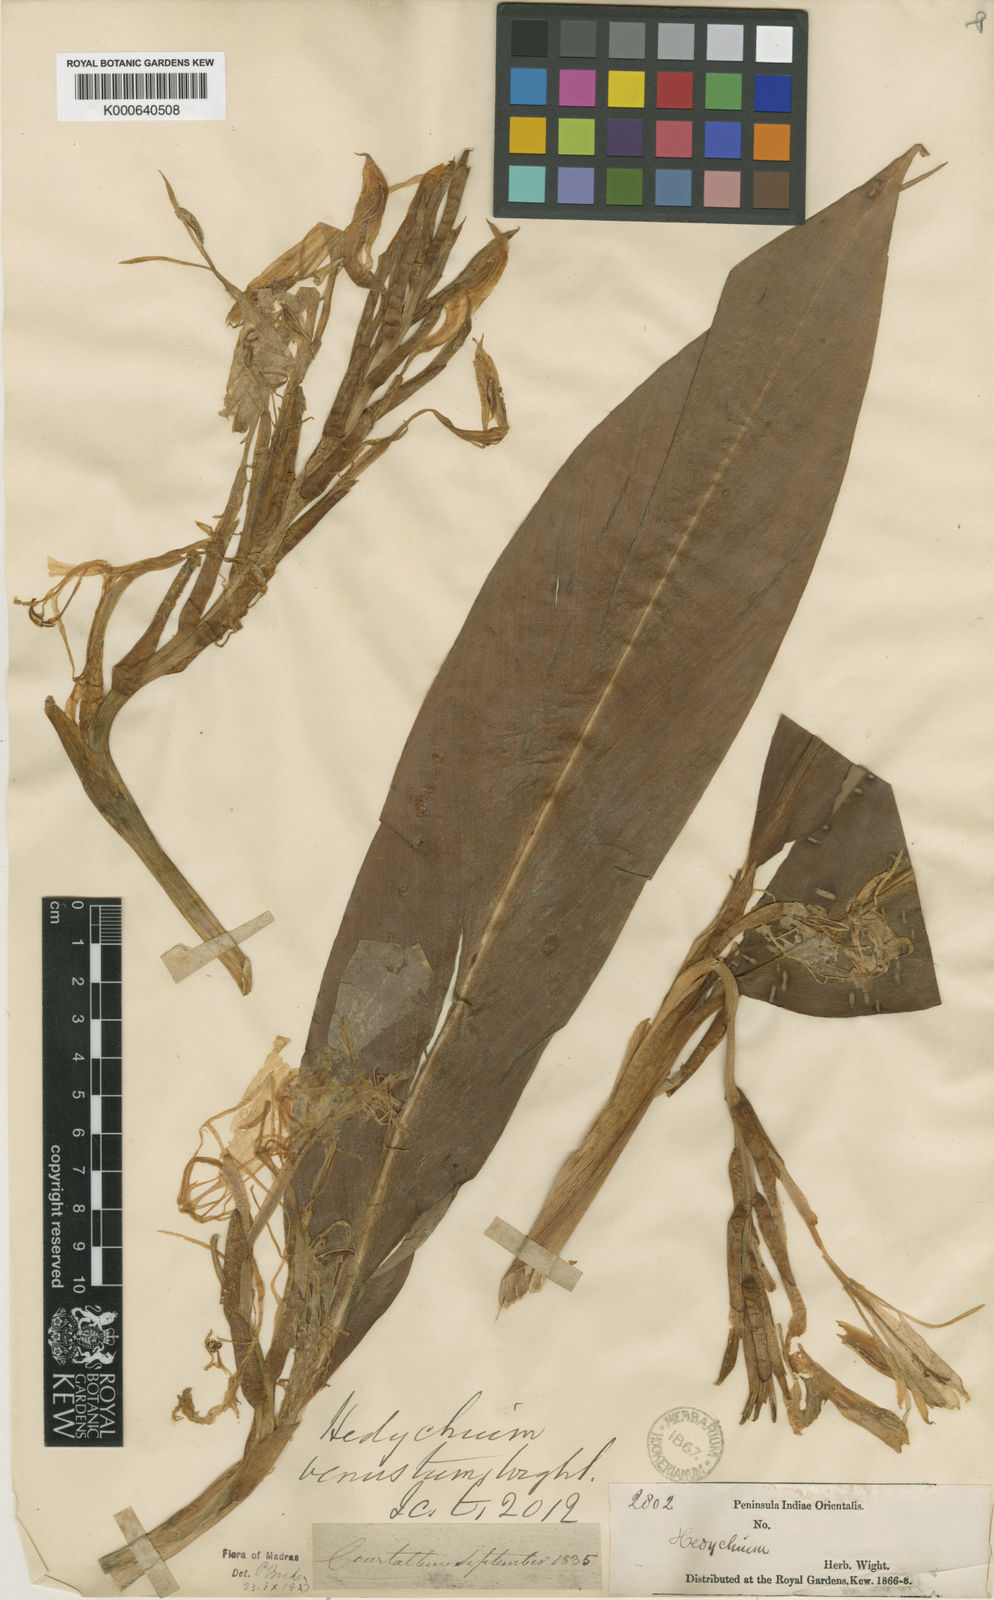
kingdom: Plantae
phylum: Tracheophyta
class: Liliopsida
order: Zingiberales
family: Zingiberaceae
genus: Hedychium
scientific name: Hedychium venustum
